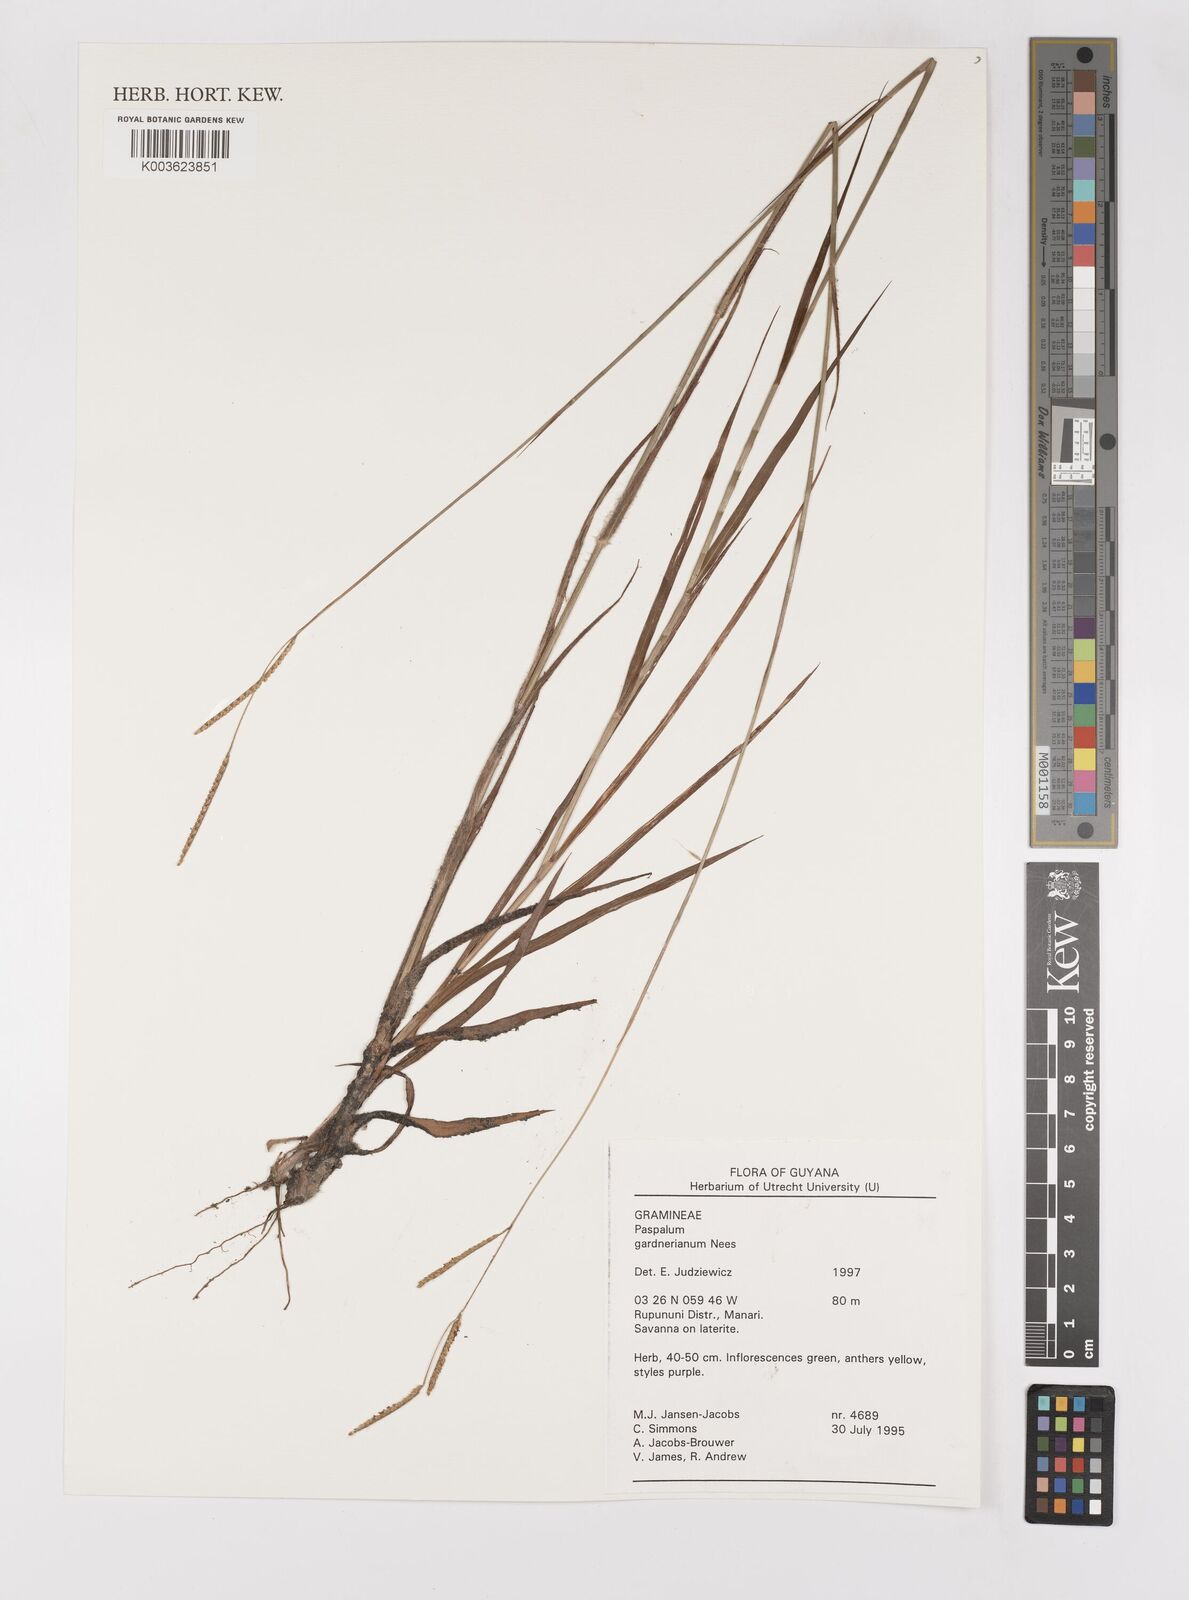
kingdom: Plantae
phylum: Tracheophyta
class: Liliopsida
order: Poales
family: Poaceae
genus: Paspalum
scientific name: Paspalum gardnerianum
